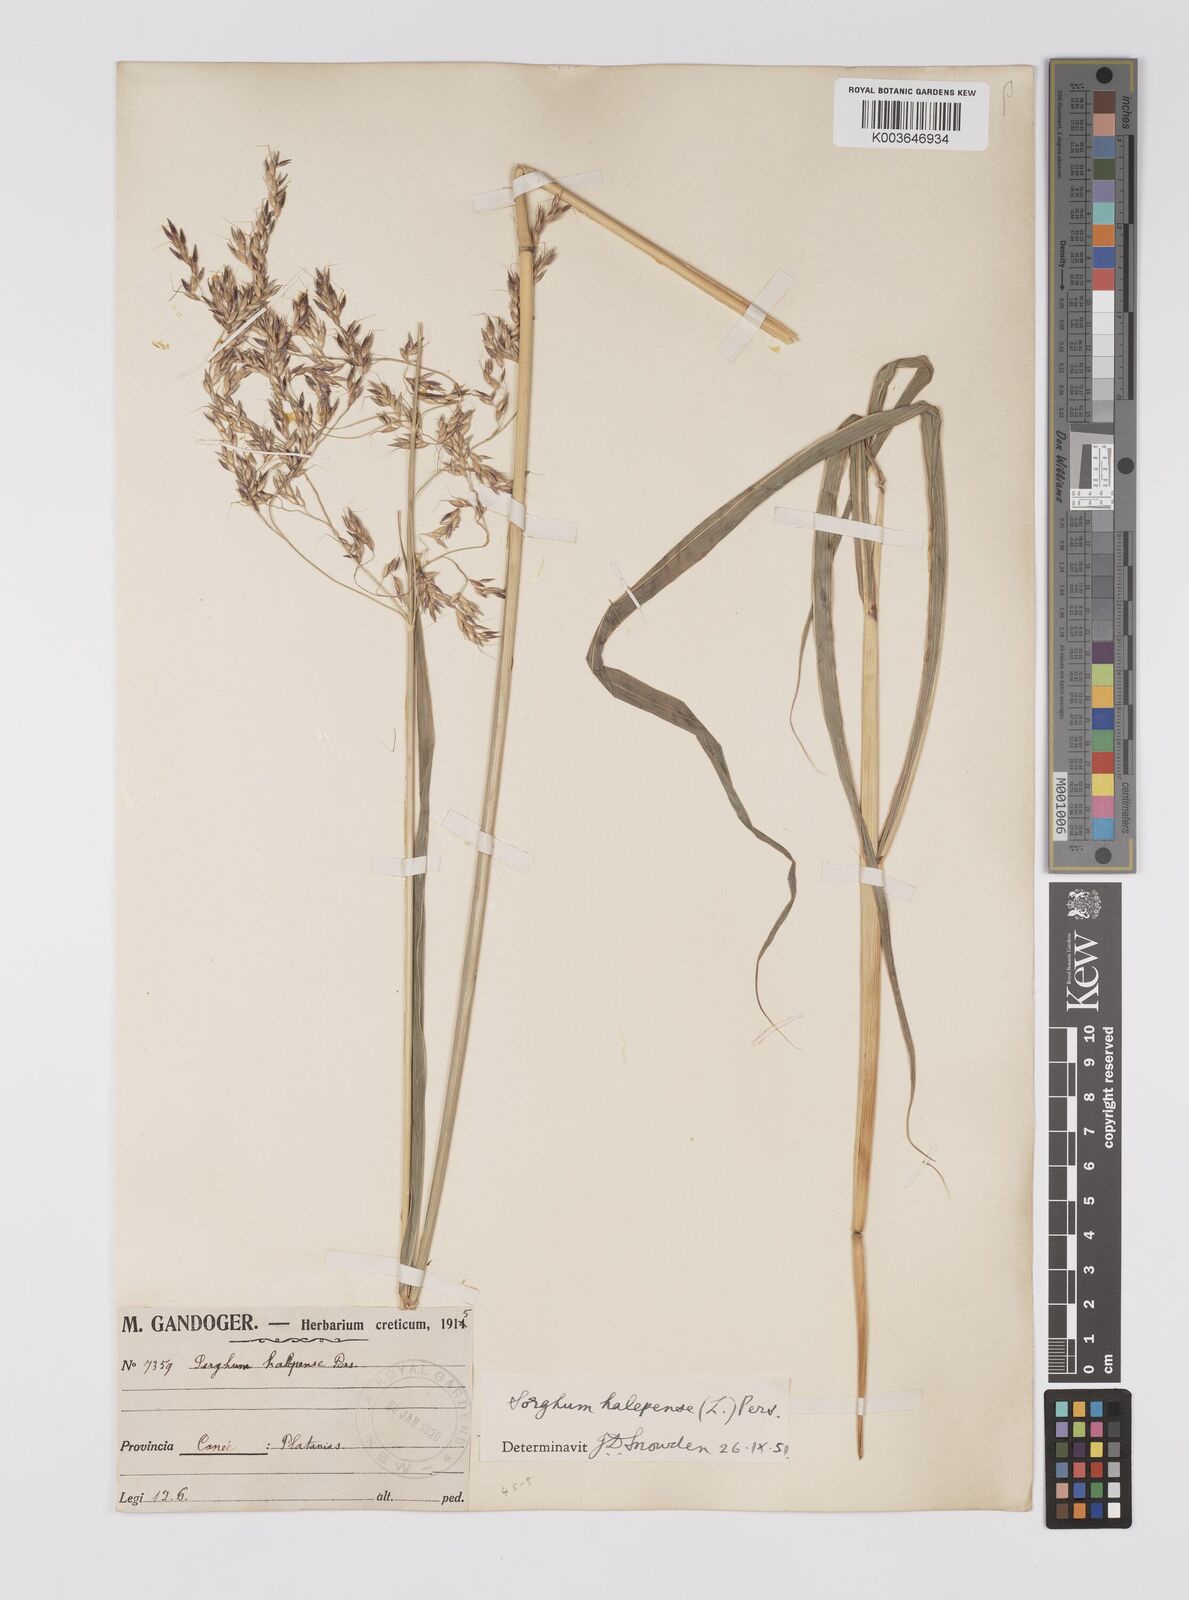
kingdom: Plantae
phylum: Tracheophyta
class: Liliopsida
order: Poales
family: Poaceae
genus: Sorghum
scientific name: Sorghum halepense
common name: Johnson-grass
